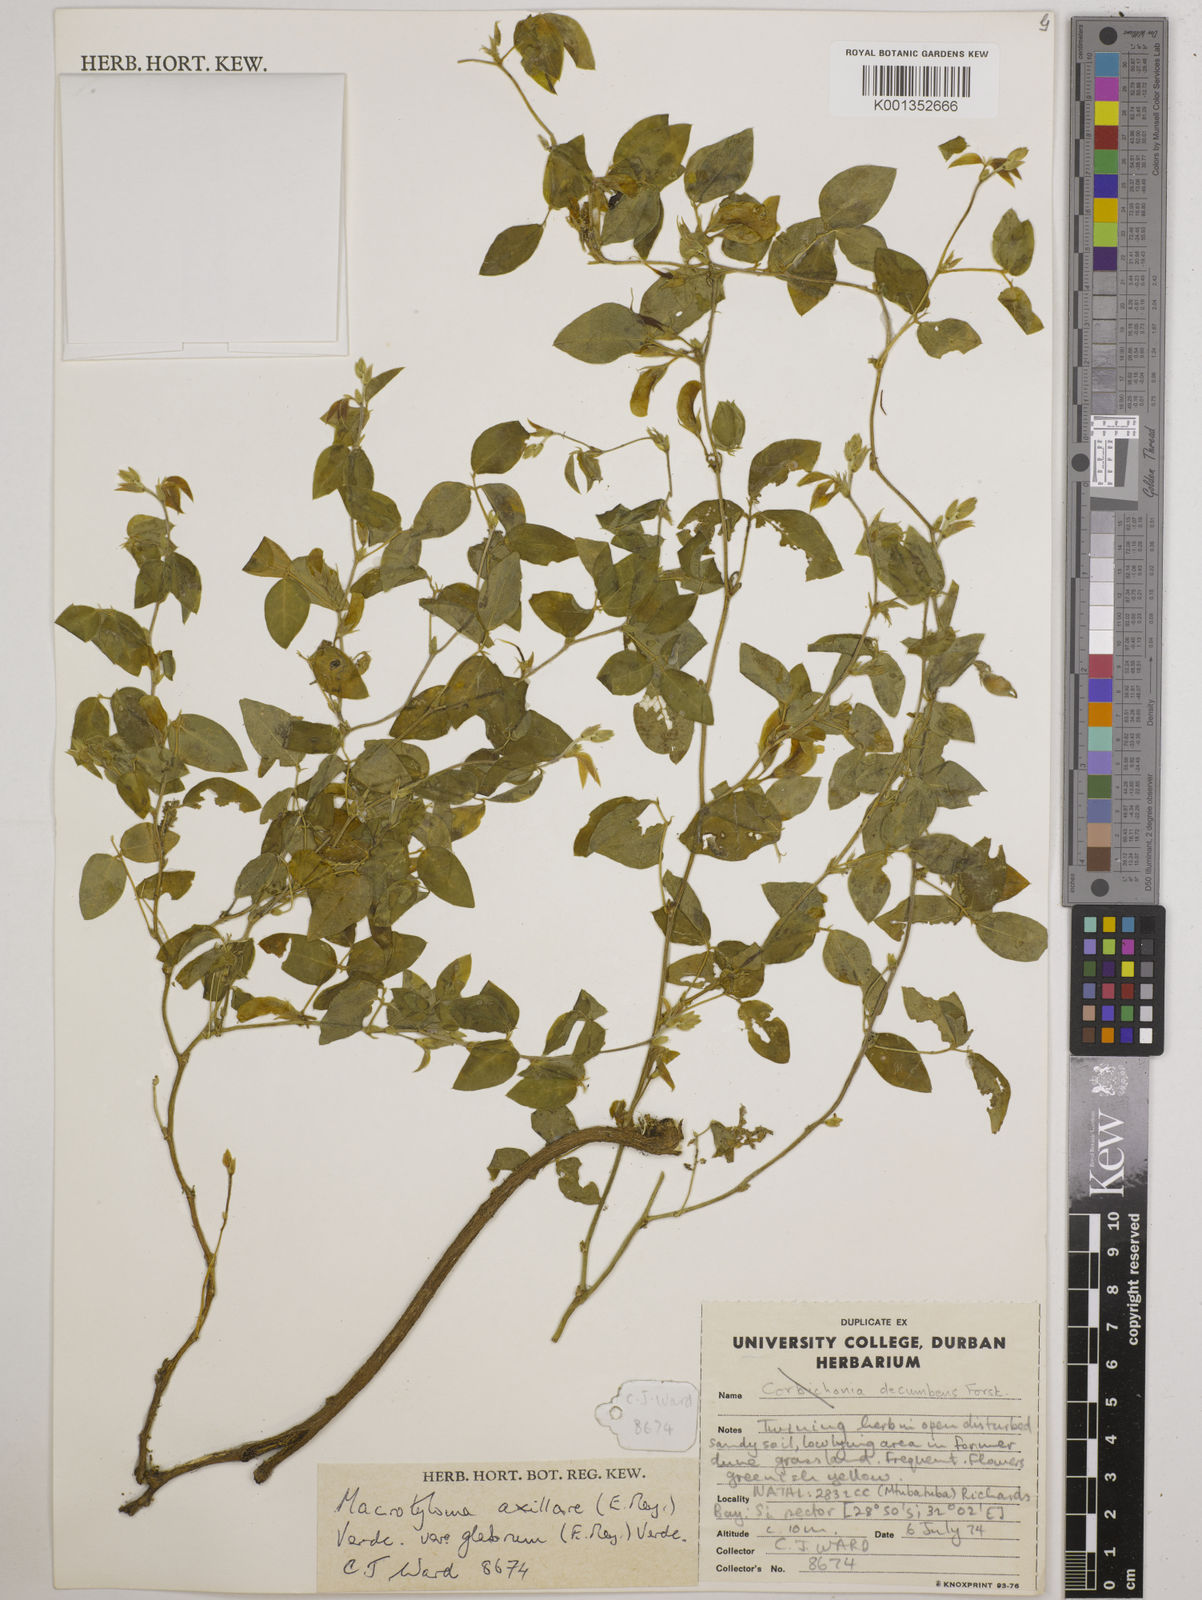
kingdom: Plantae
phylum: Tracheophyta
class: Magnoliopsida
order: Fabales
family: Fabaceae
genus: Macrotyloma
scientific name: Macrotyloma axillare
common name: Perennial horsegram
